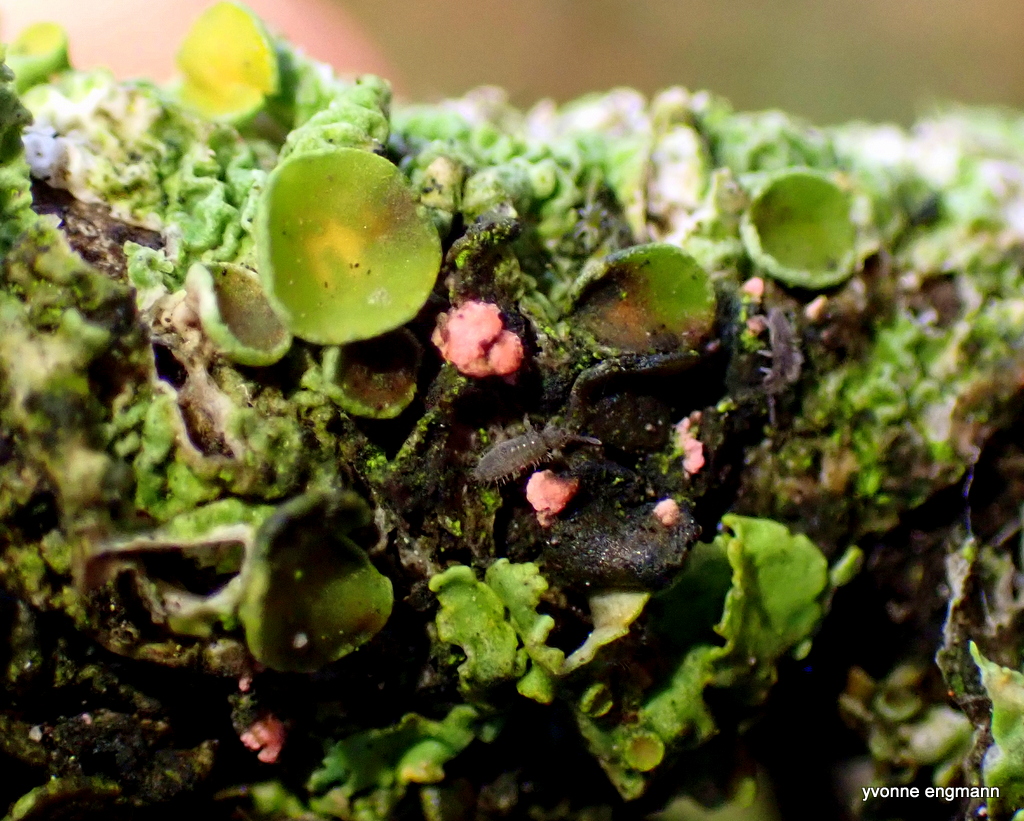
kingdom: Fungi
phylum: Ascomycota
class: Sordariomycetes
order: Hypocreales
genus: Illosporiopsis
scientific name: Illosporiopsis christiansenii
